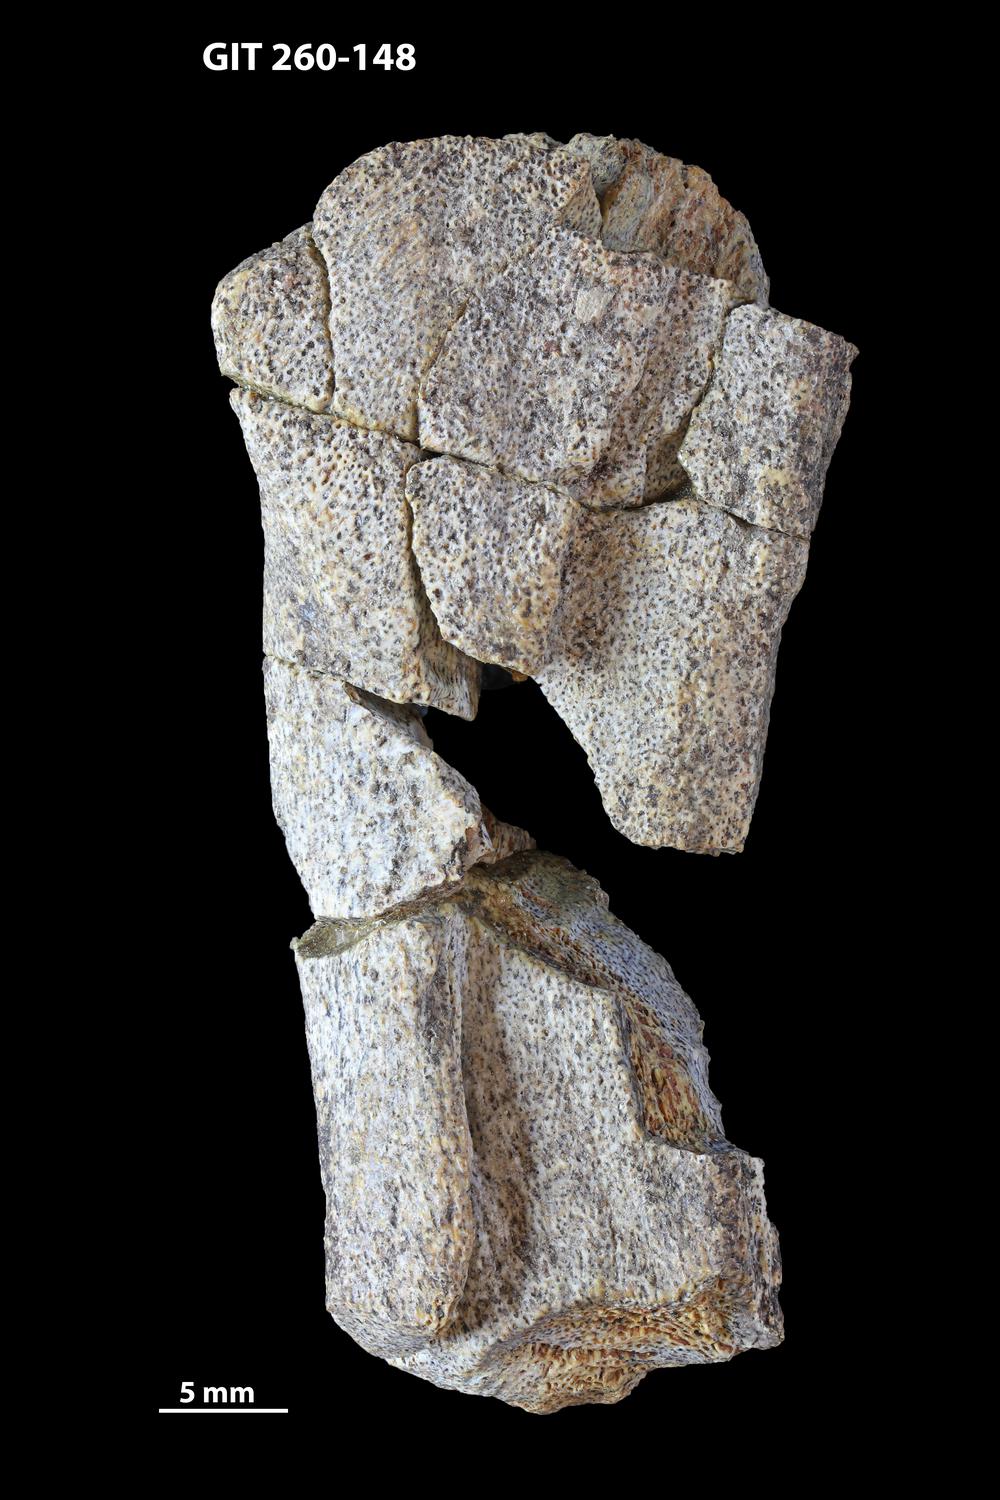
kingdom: Animalia
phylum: Chordata
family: Homostiidae
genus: Homostius
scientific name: Homostius
